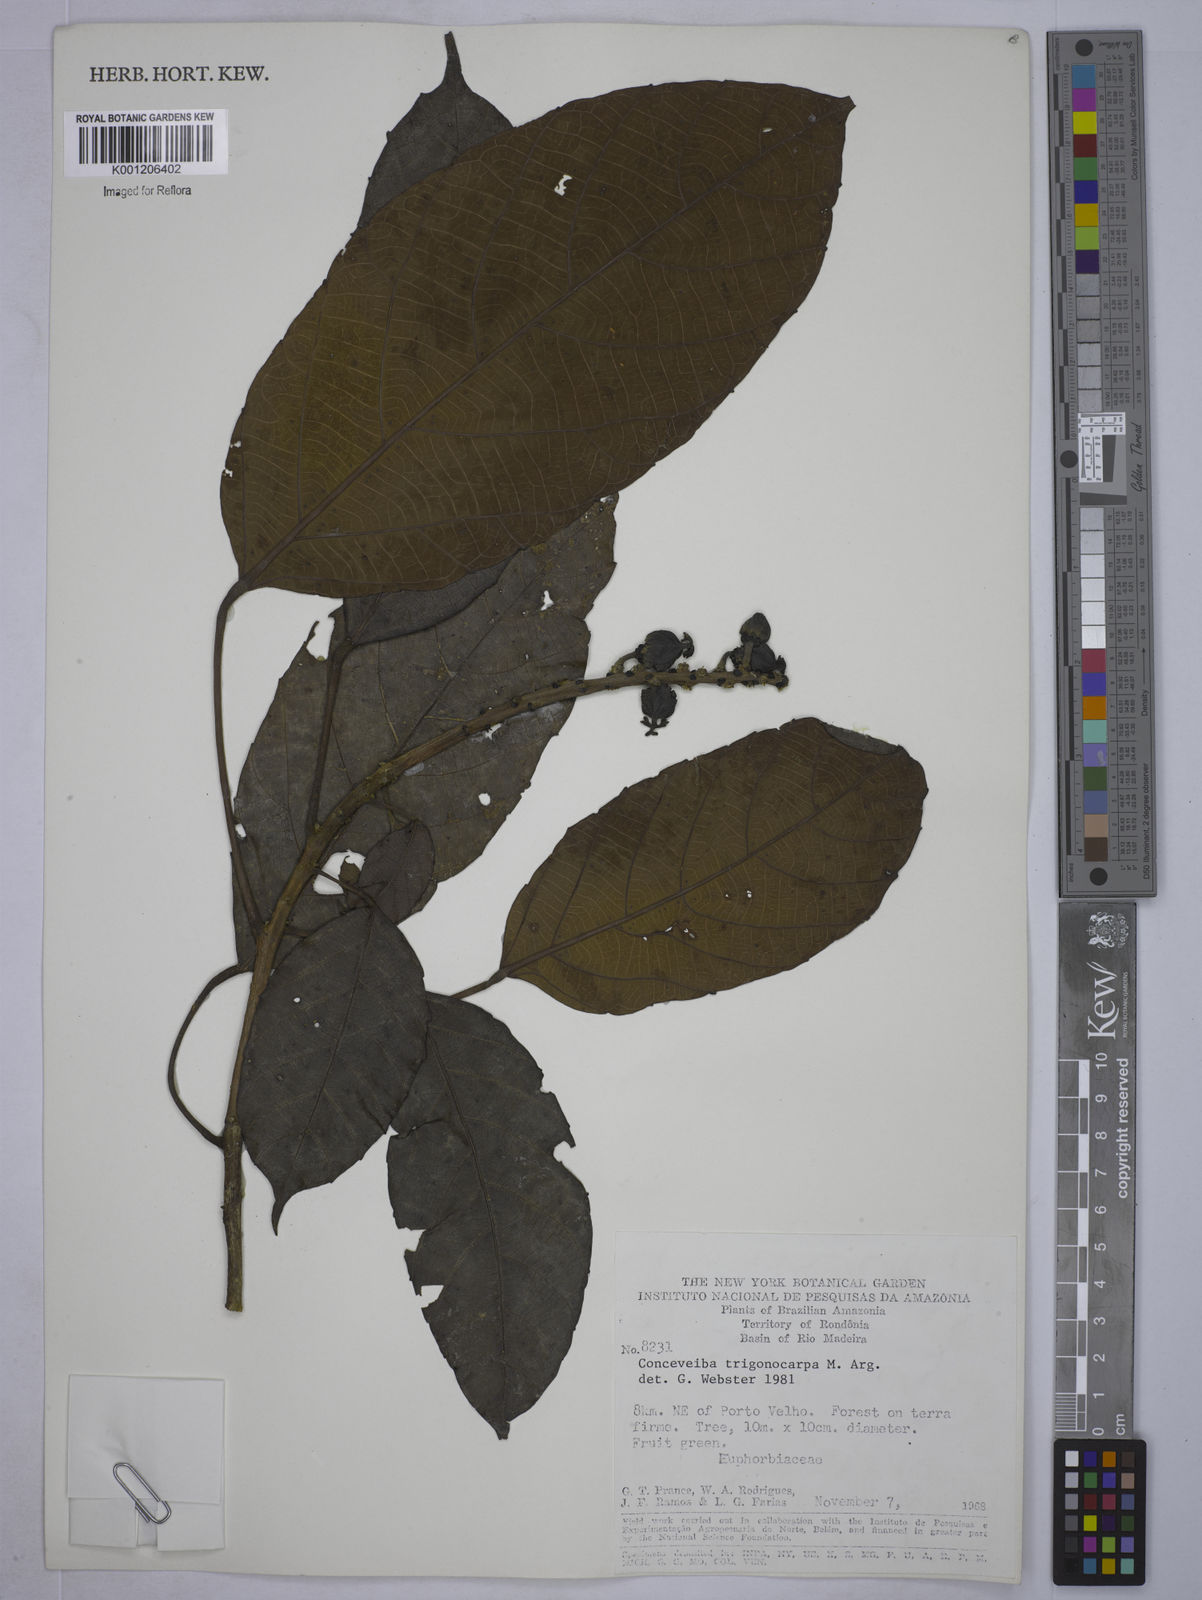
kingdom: Plantae
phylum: Tracheophyta
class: Magnoliopsida
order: Malpighiales
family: Euphorbiaceae
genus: Conceveiba
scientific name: Conceveiba guianensis
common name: Poatoru
